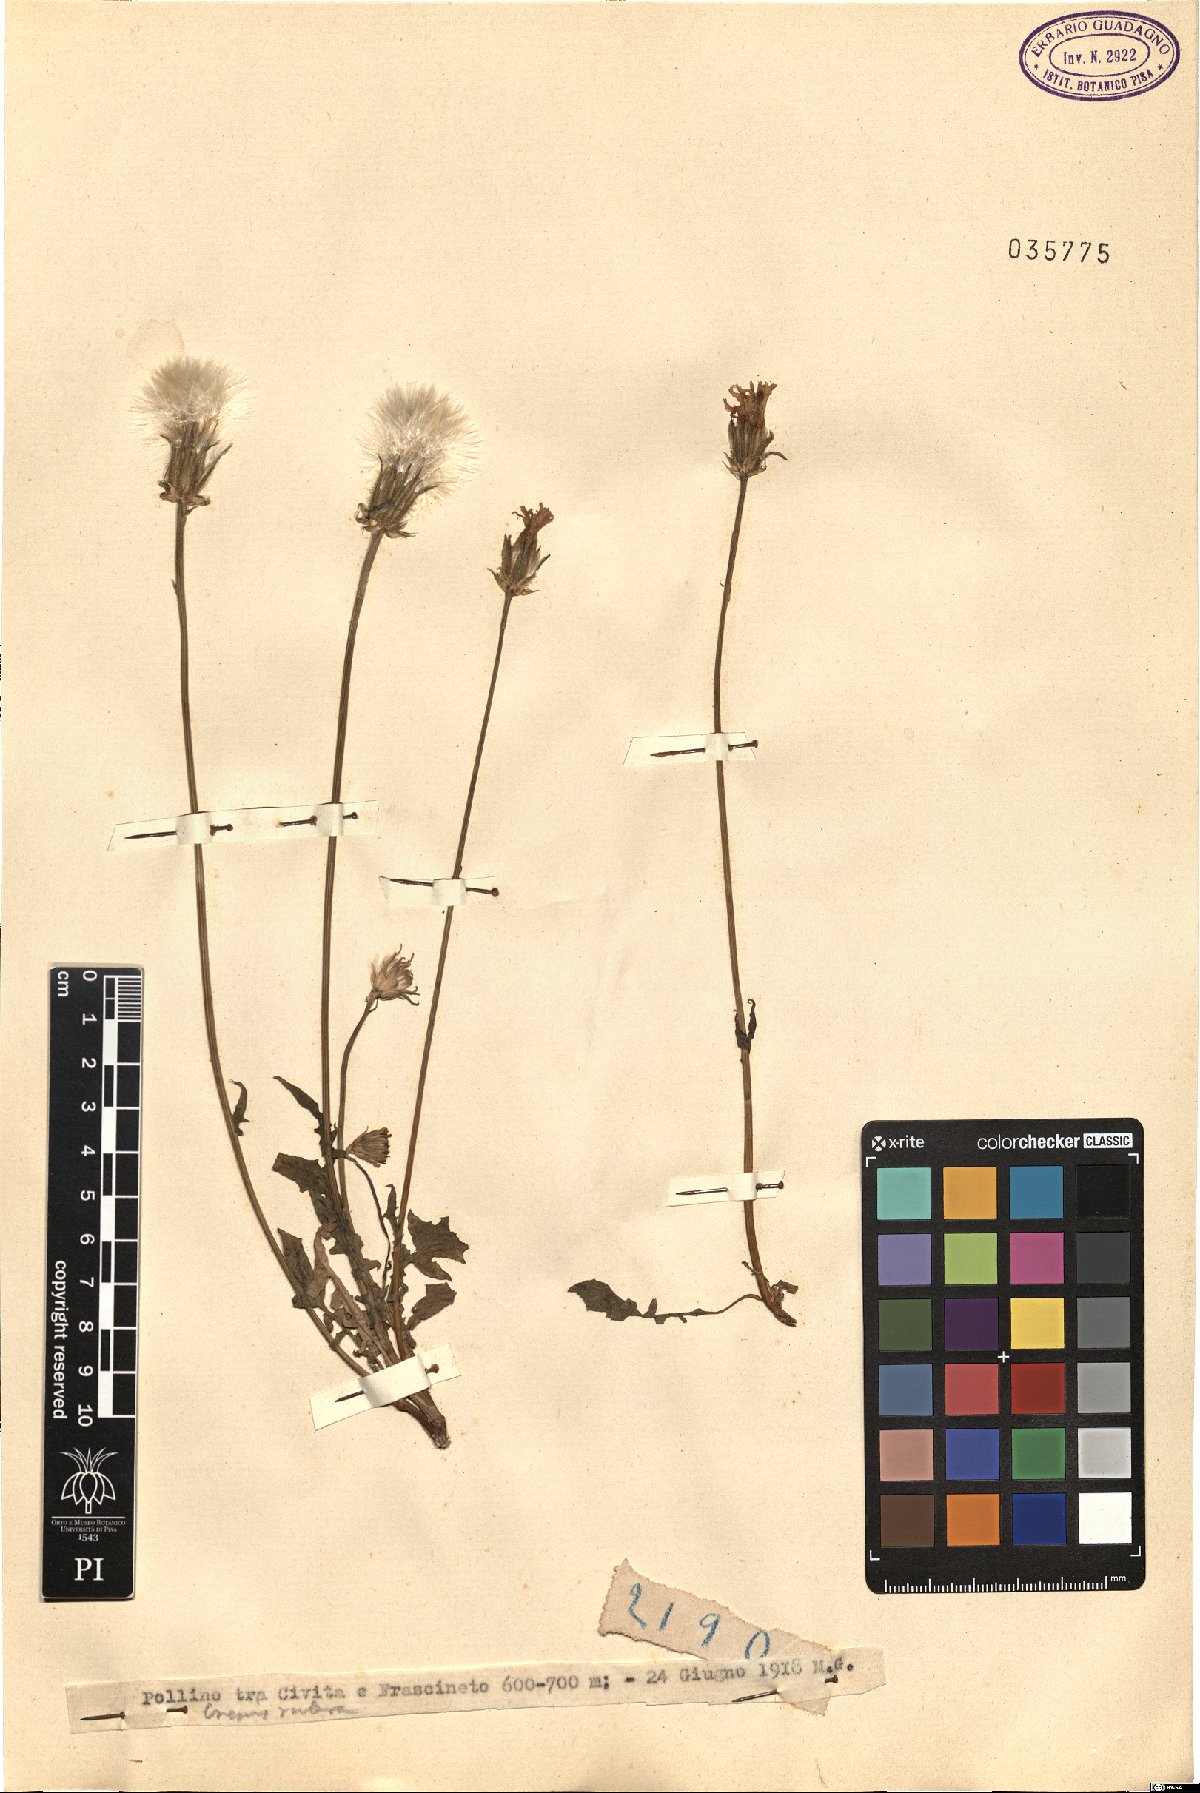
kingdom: Plantae
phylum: Tracheophyta
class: Magnoliopsida
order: Asterales
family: Asteraceae
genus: Crepis
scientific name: Crepis rubra
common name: Pink hawk's-beard
